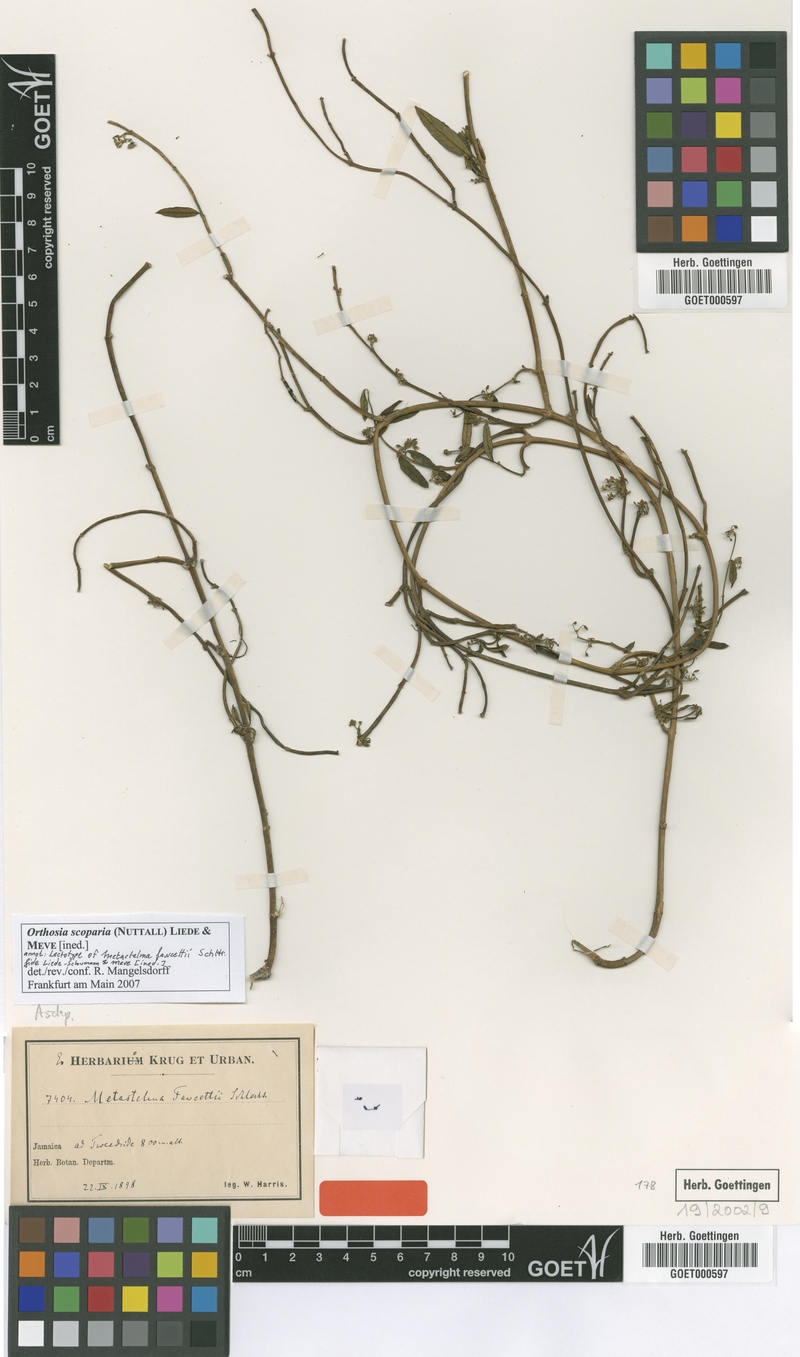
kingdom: Plantae
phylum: Tracheophyta
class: Magnoliopsida
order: Gentianales
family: Apocynaceae
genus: Orthosia
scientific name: Orthosia scoparia
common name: Leafless swallow-wort
